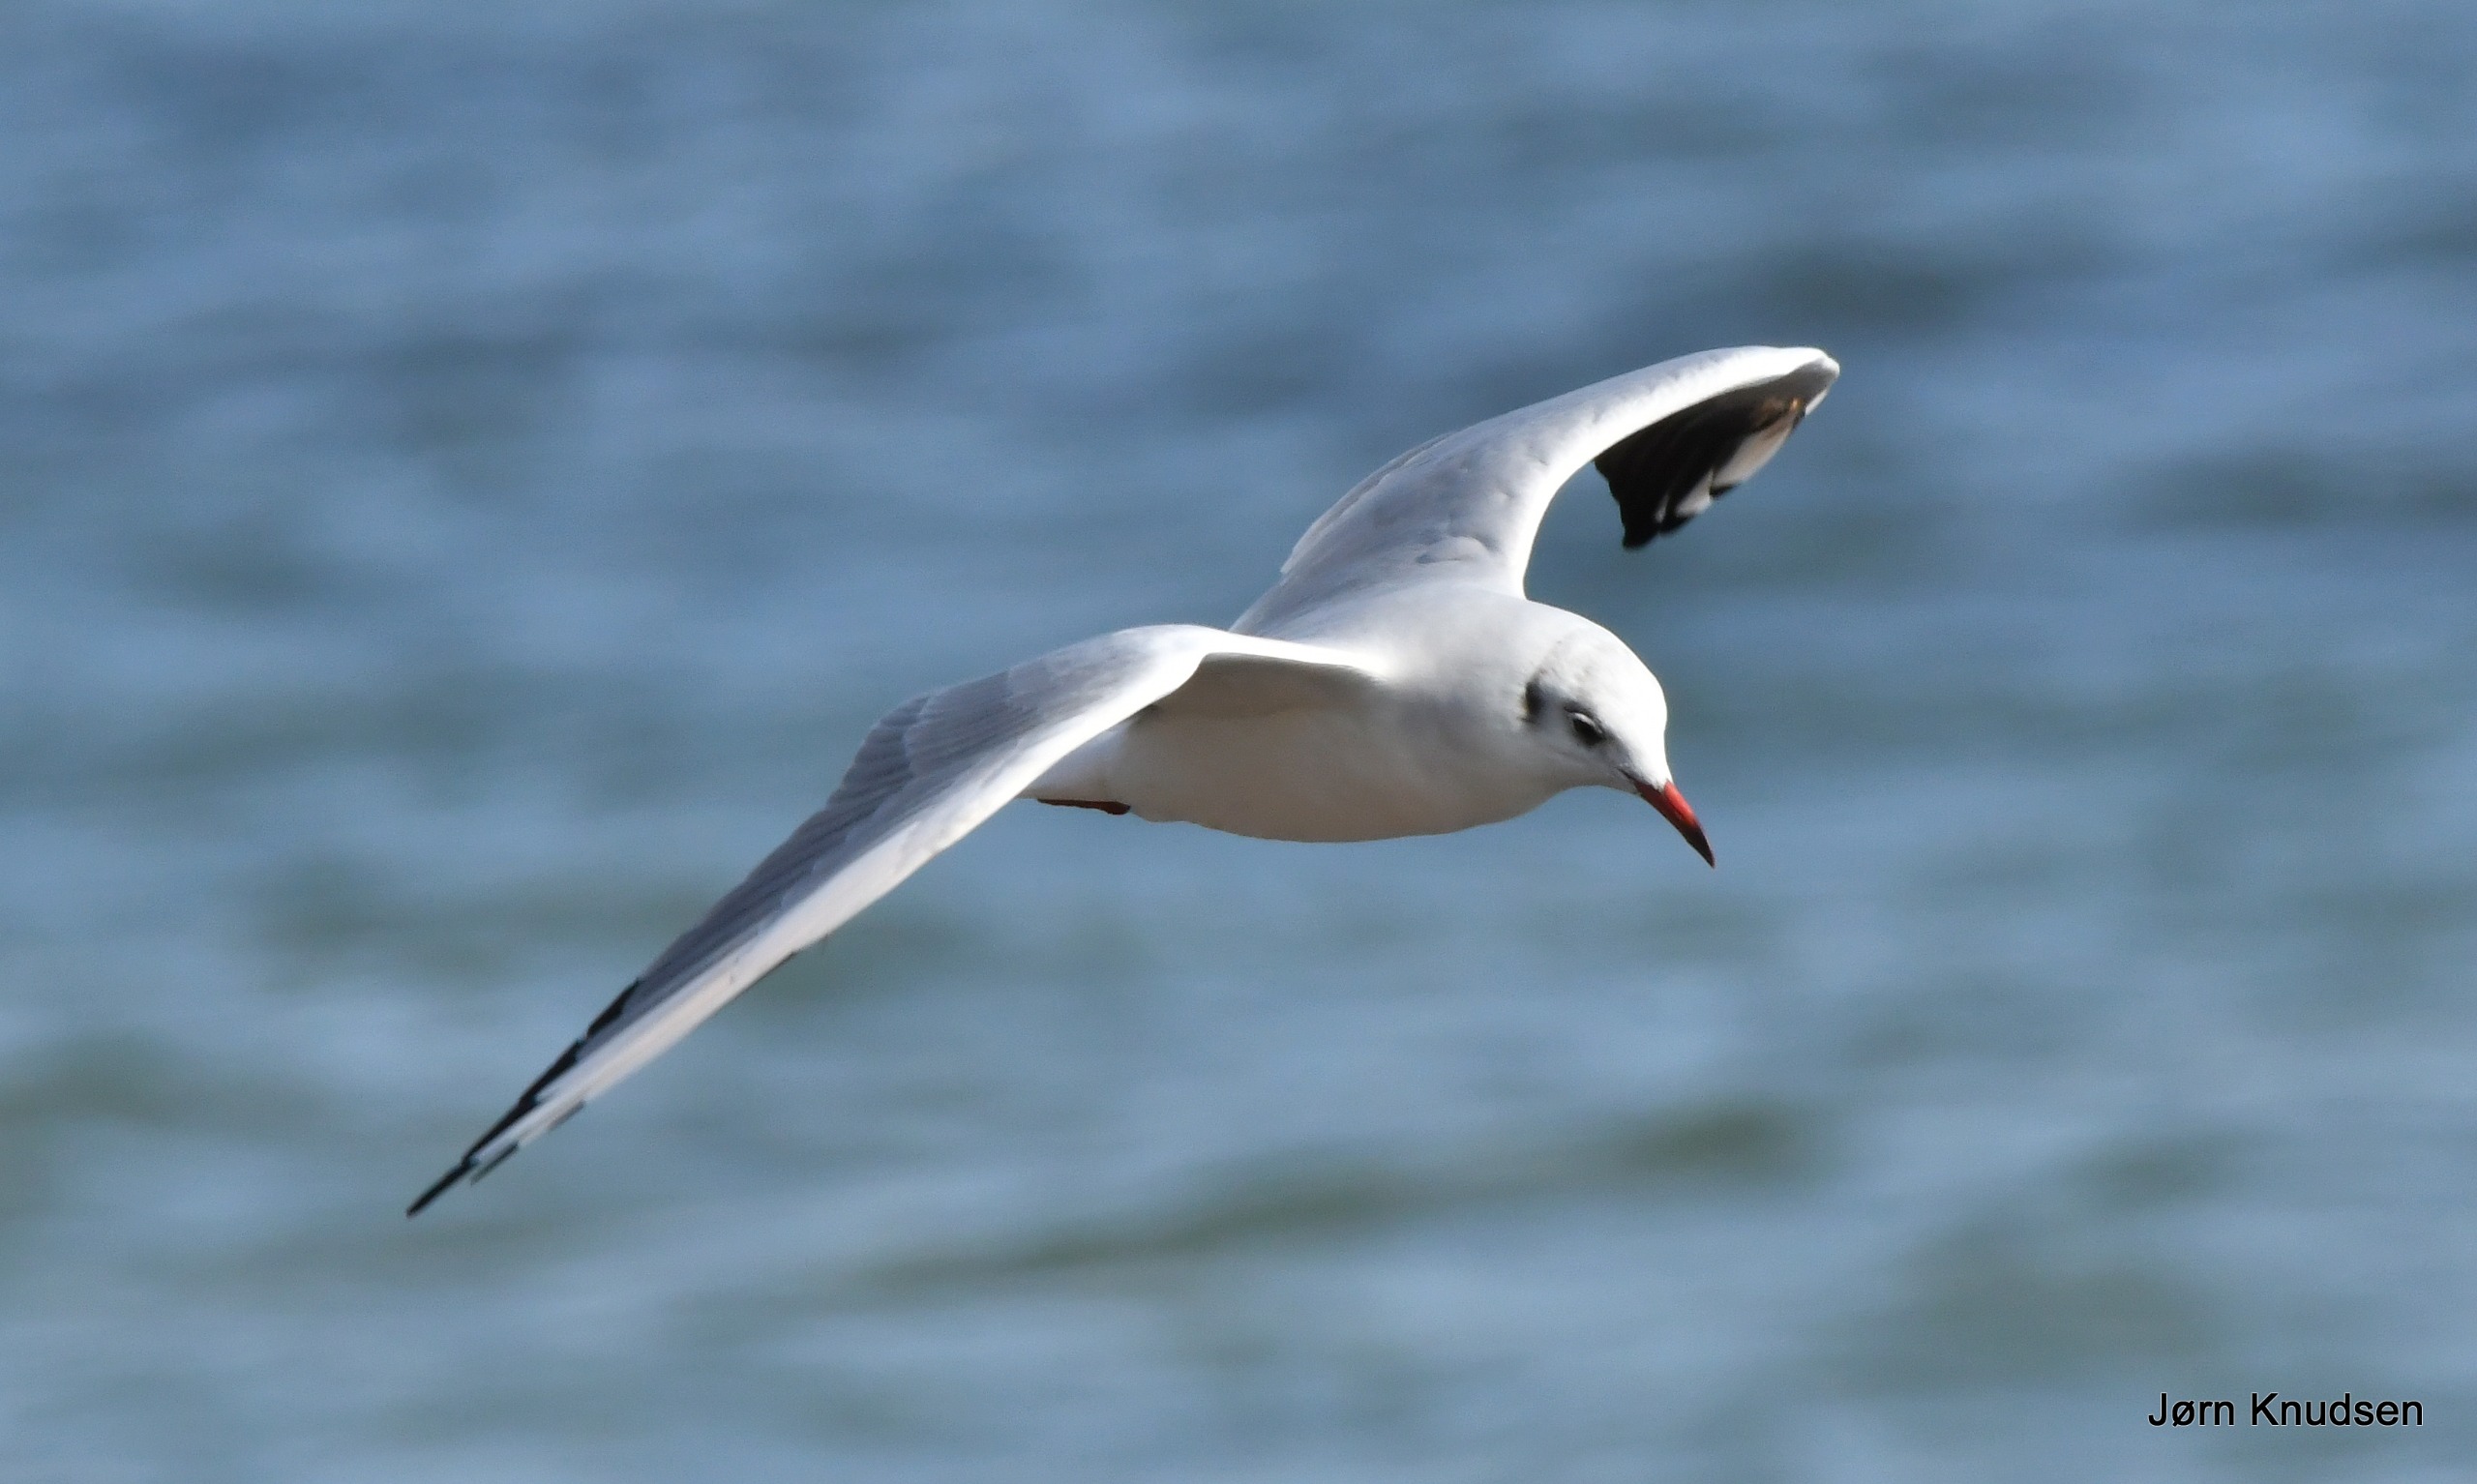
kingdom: Animalia
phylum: Chordata
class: Aves
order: Charadriiformes
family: Laridae
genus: Chroicocephalus
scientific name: Chroicocephalus ridibundus
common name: Hættemåge
